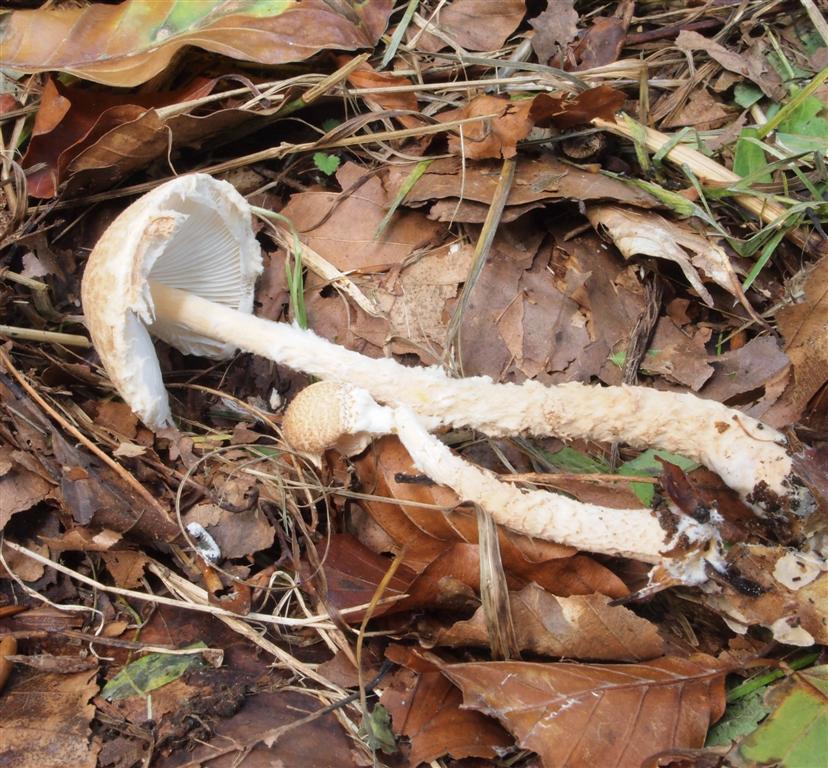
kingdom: Fungi
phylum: Basidiomycota
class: Agaricomycetes
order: Agaricales
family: Agaricaceae
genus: Lepiota
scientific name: Lepiota clypeolaria
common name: flosset parasolhat
